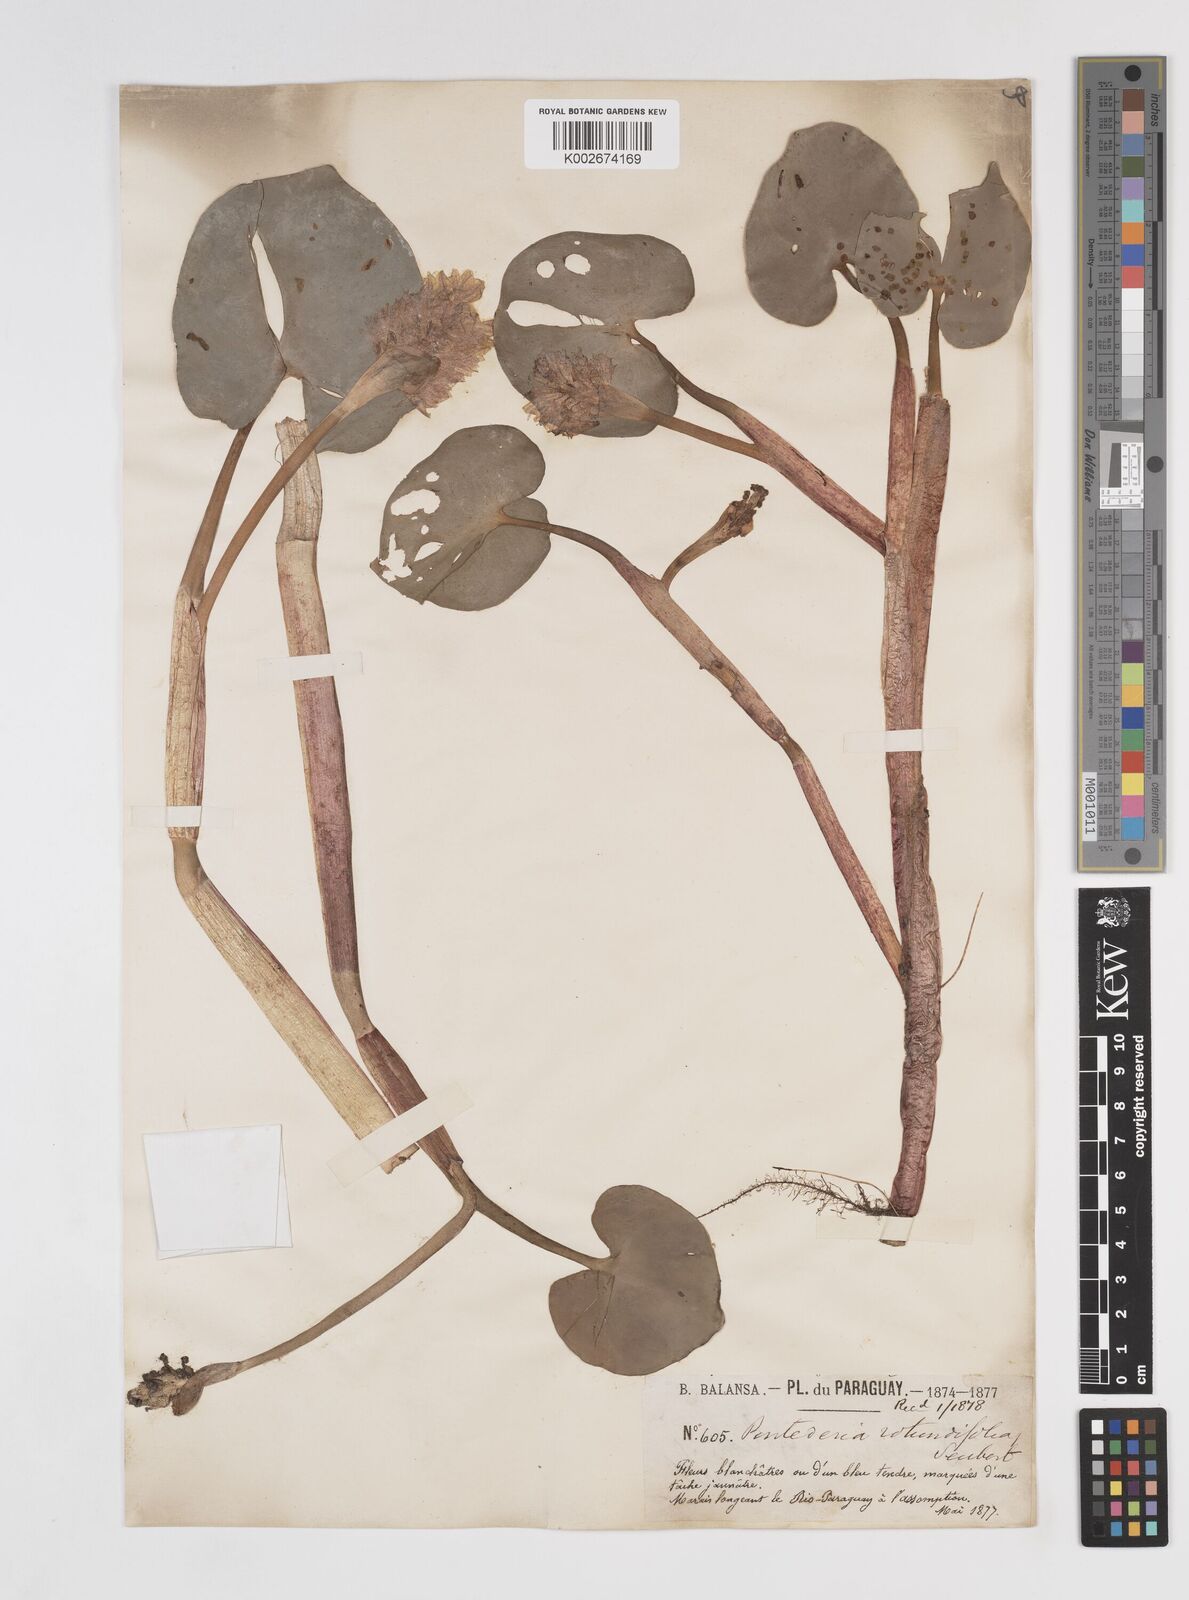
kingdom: Plantae
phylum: Tracheophyta
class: Liliopsida
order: Commelinales
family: Pontederiaceae
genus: Pontederia
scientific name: Pontederia rotundifolia
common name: Tropical pickerel-weed
